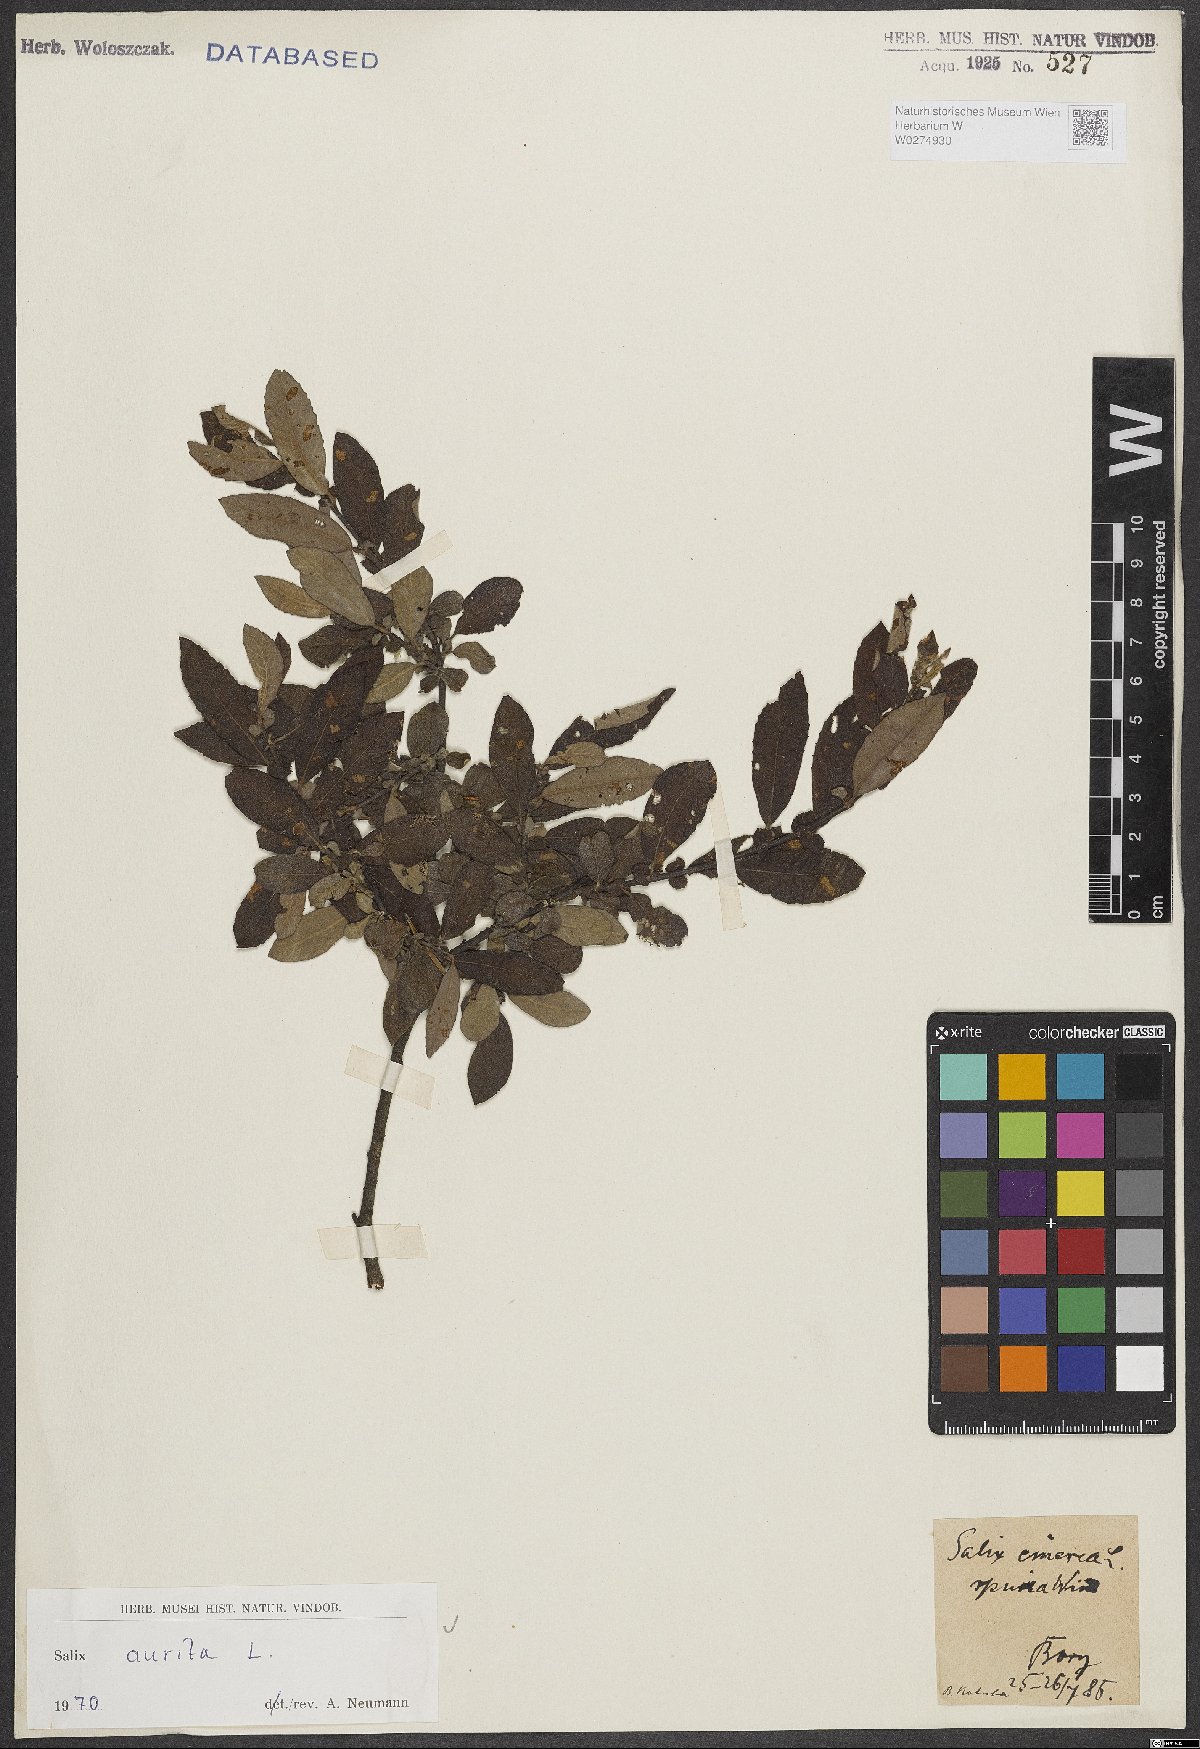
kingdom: Plantae
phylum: Tracheophyta
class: Magnoliopsida
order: Malpighiales
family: Salicaceae
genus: Salix
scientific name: Salix aurita
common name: Eared willow
